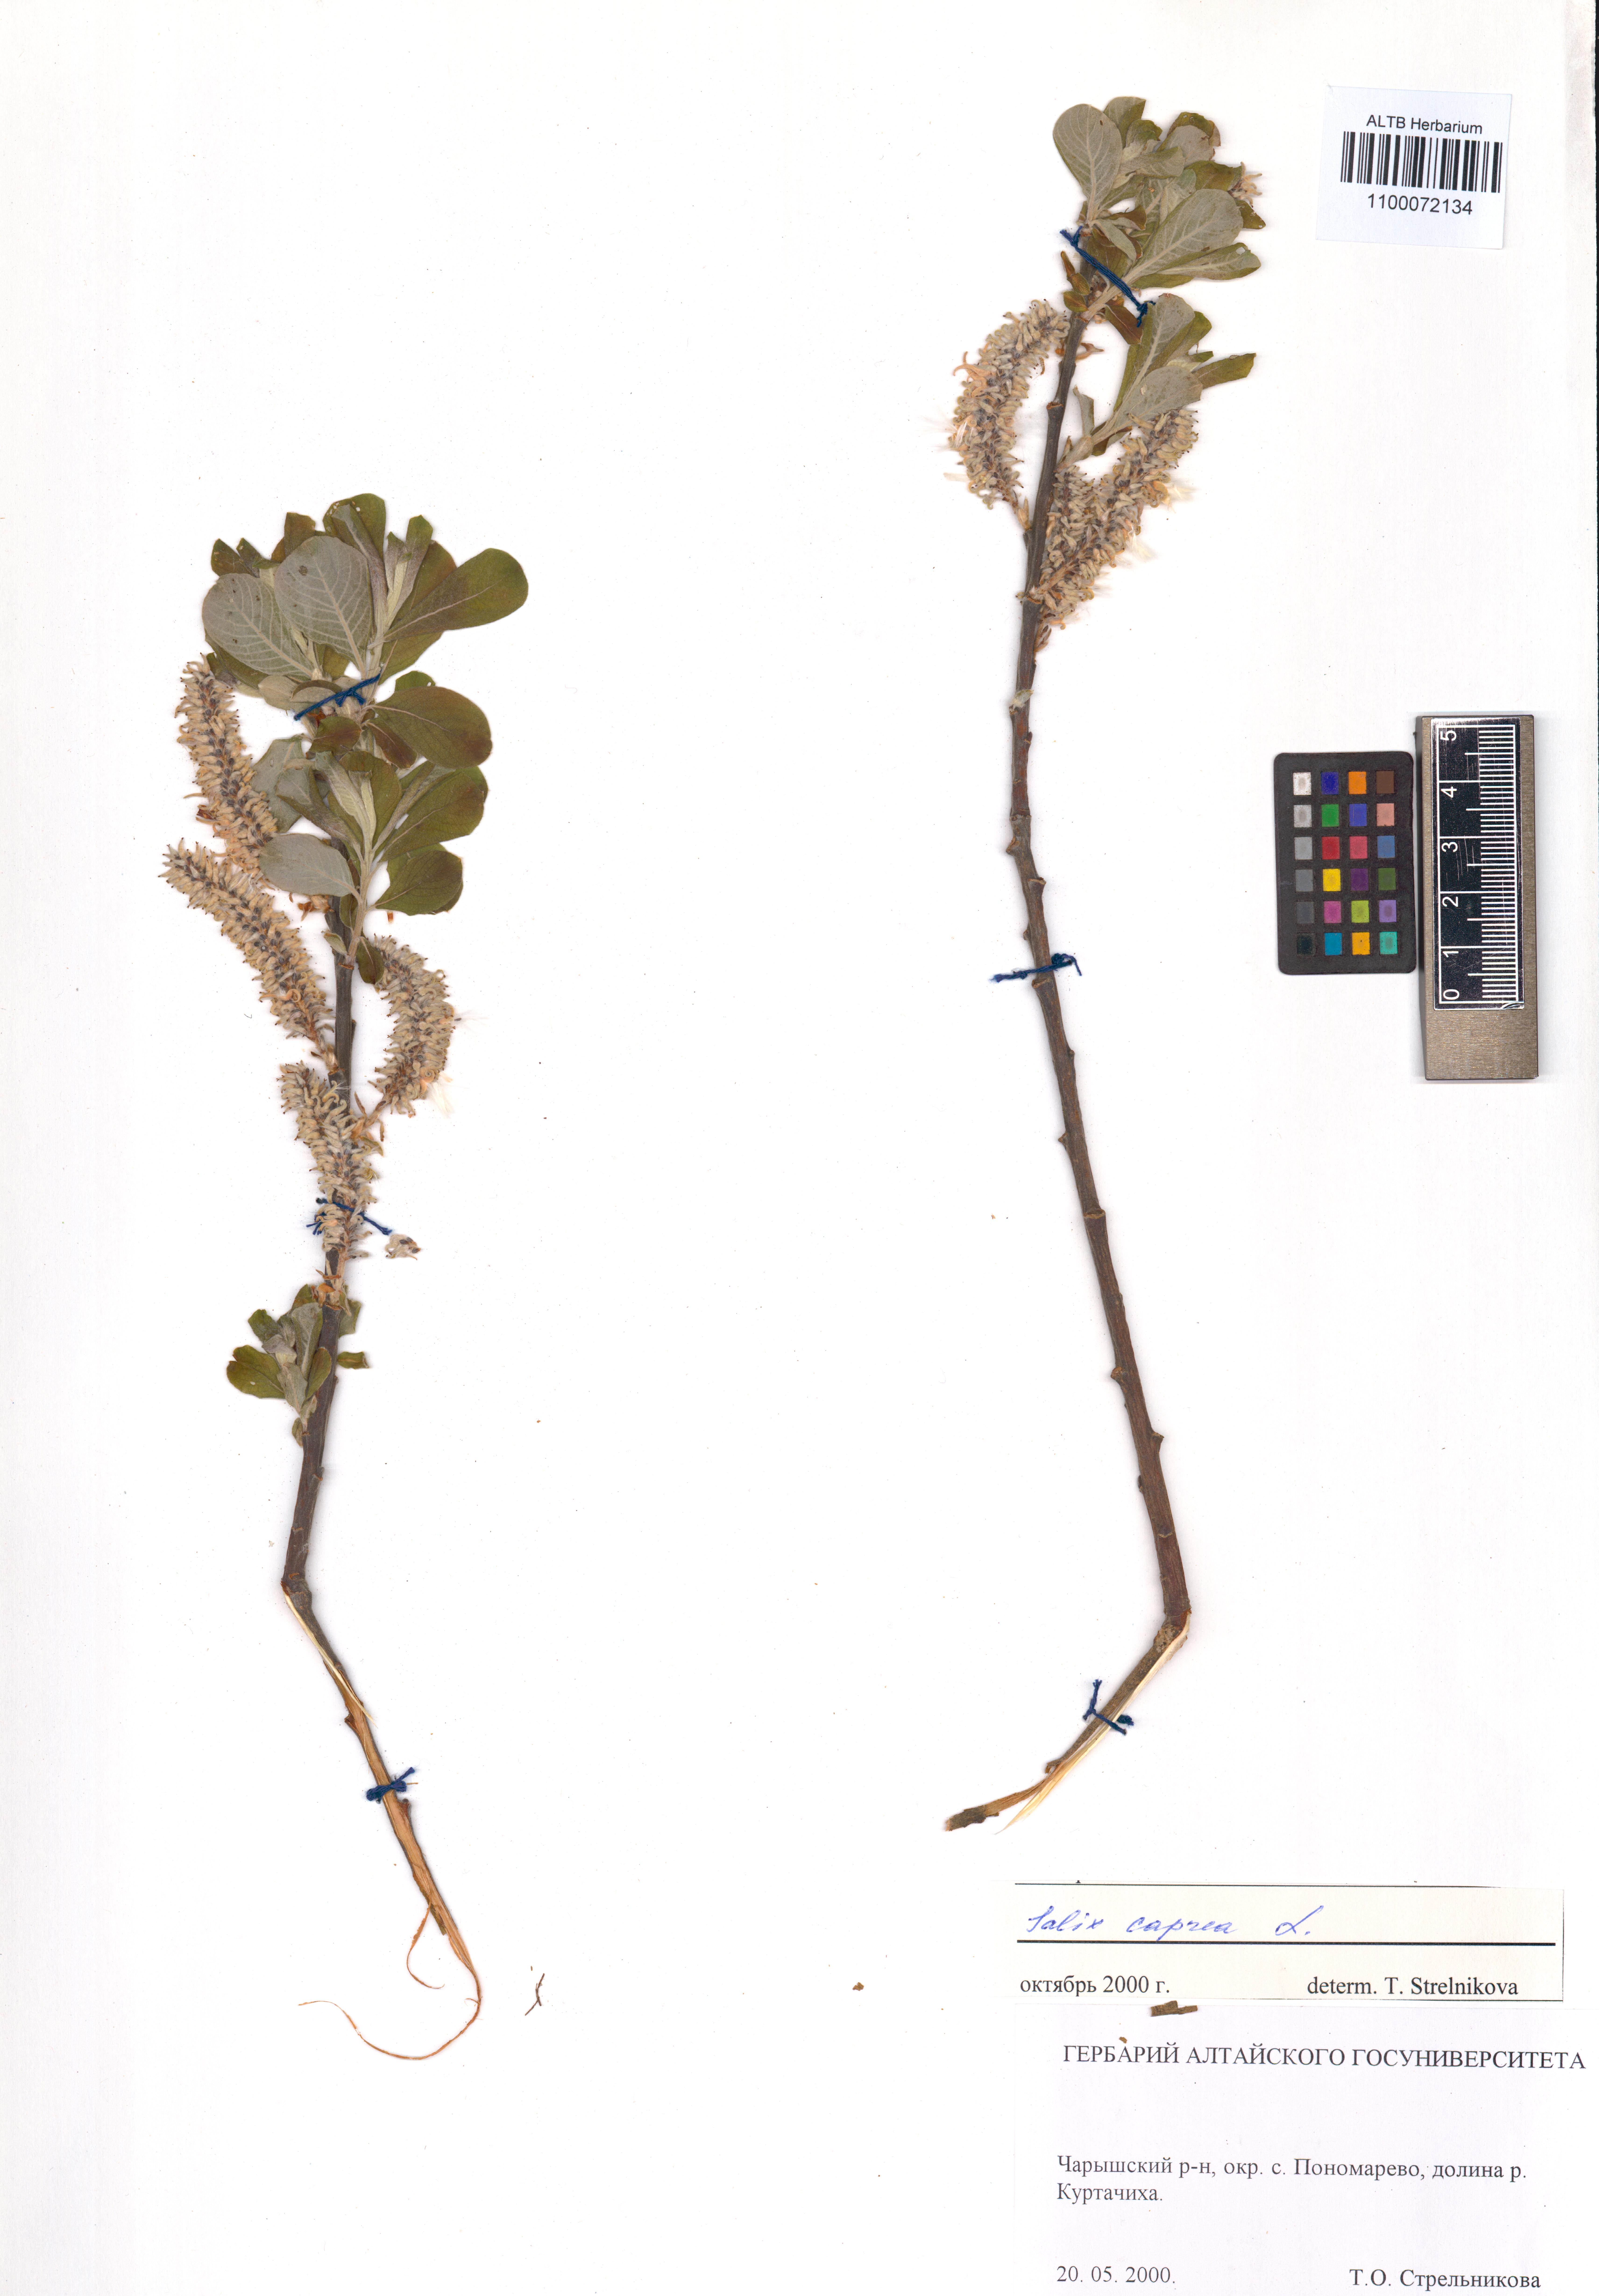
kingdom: Plantae
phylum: Tracheophyta
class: Magnoliopsida
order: Malpighiales
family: Salicaceae
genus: Salix
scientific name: Salix caprea
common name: Goat willow
